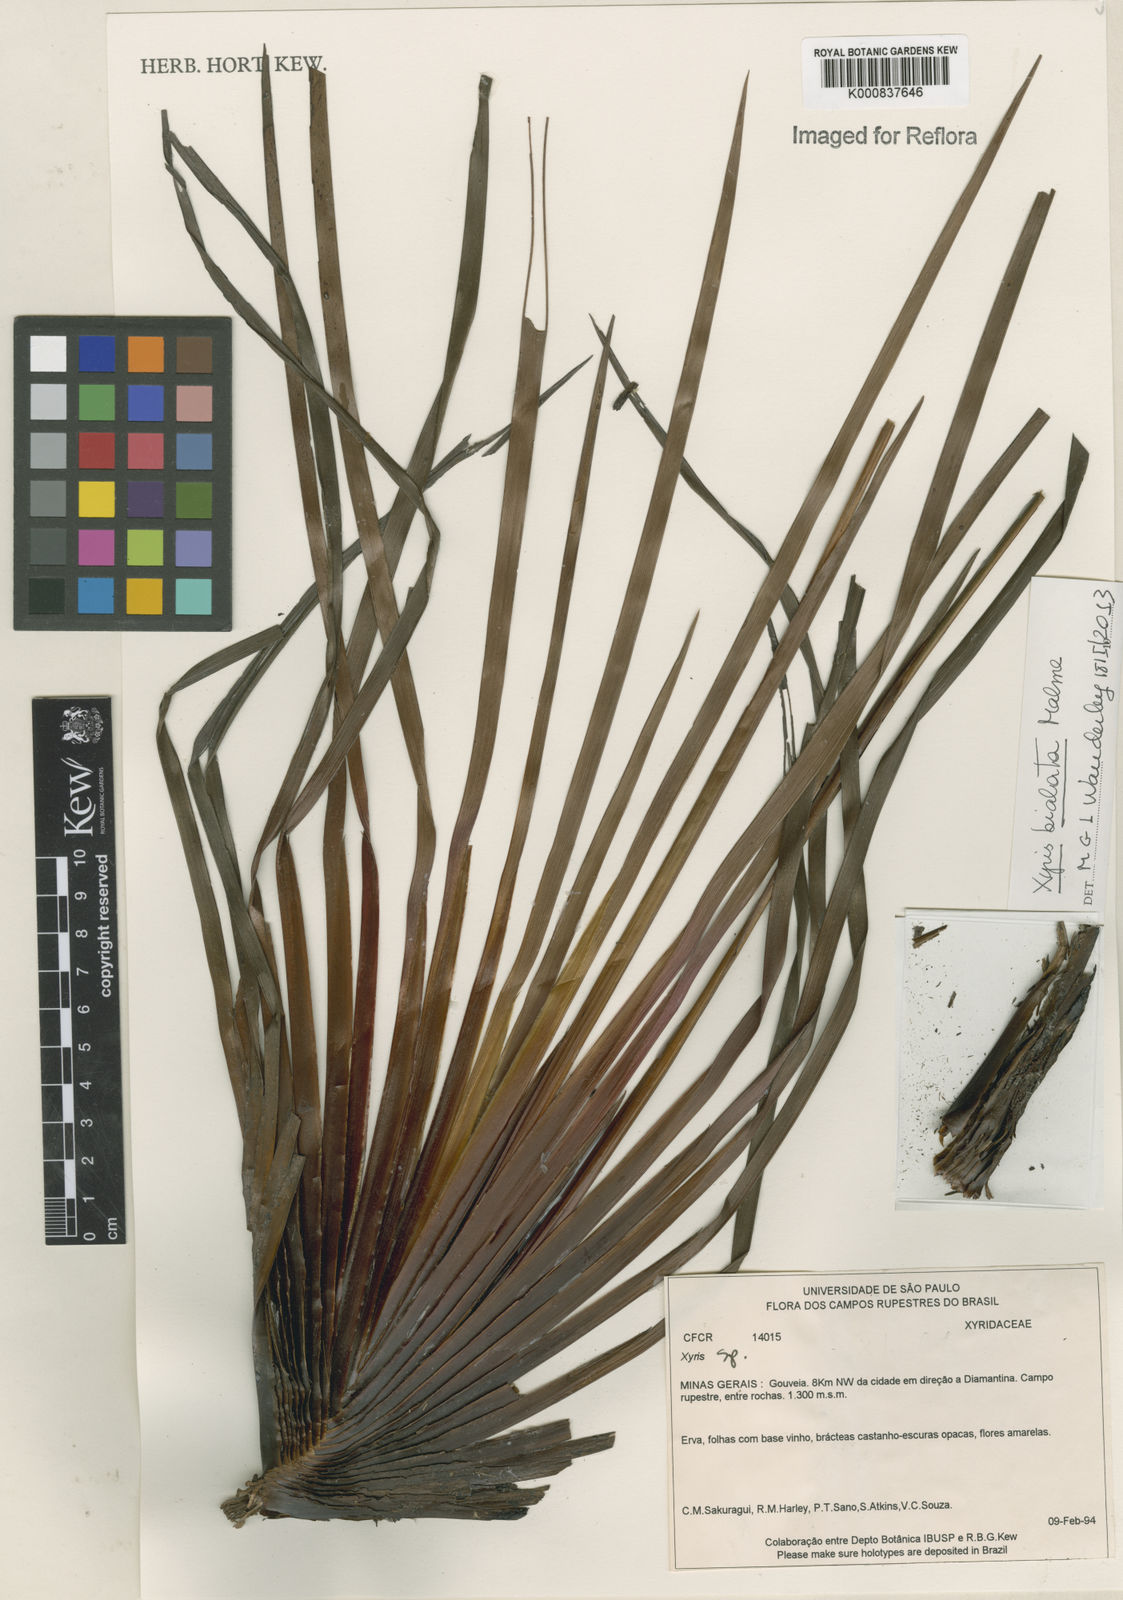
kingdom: Plantae
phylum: Tracheophyta
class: Liliopsida
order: Poales
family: Xyridaceae
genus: Xyris
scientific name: Xyris bialata
